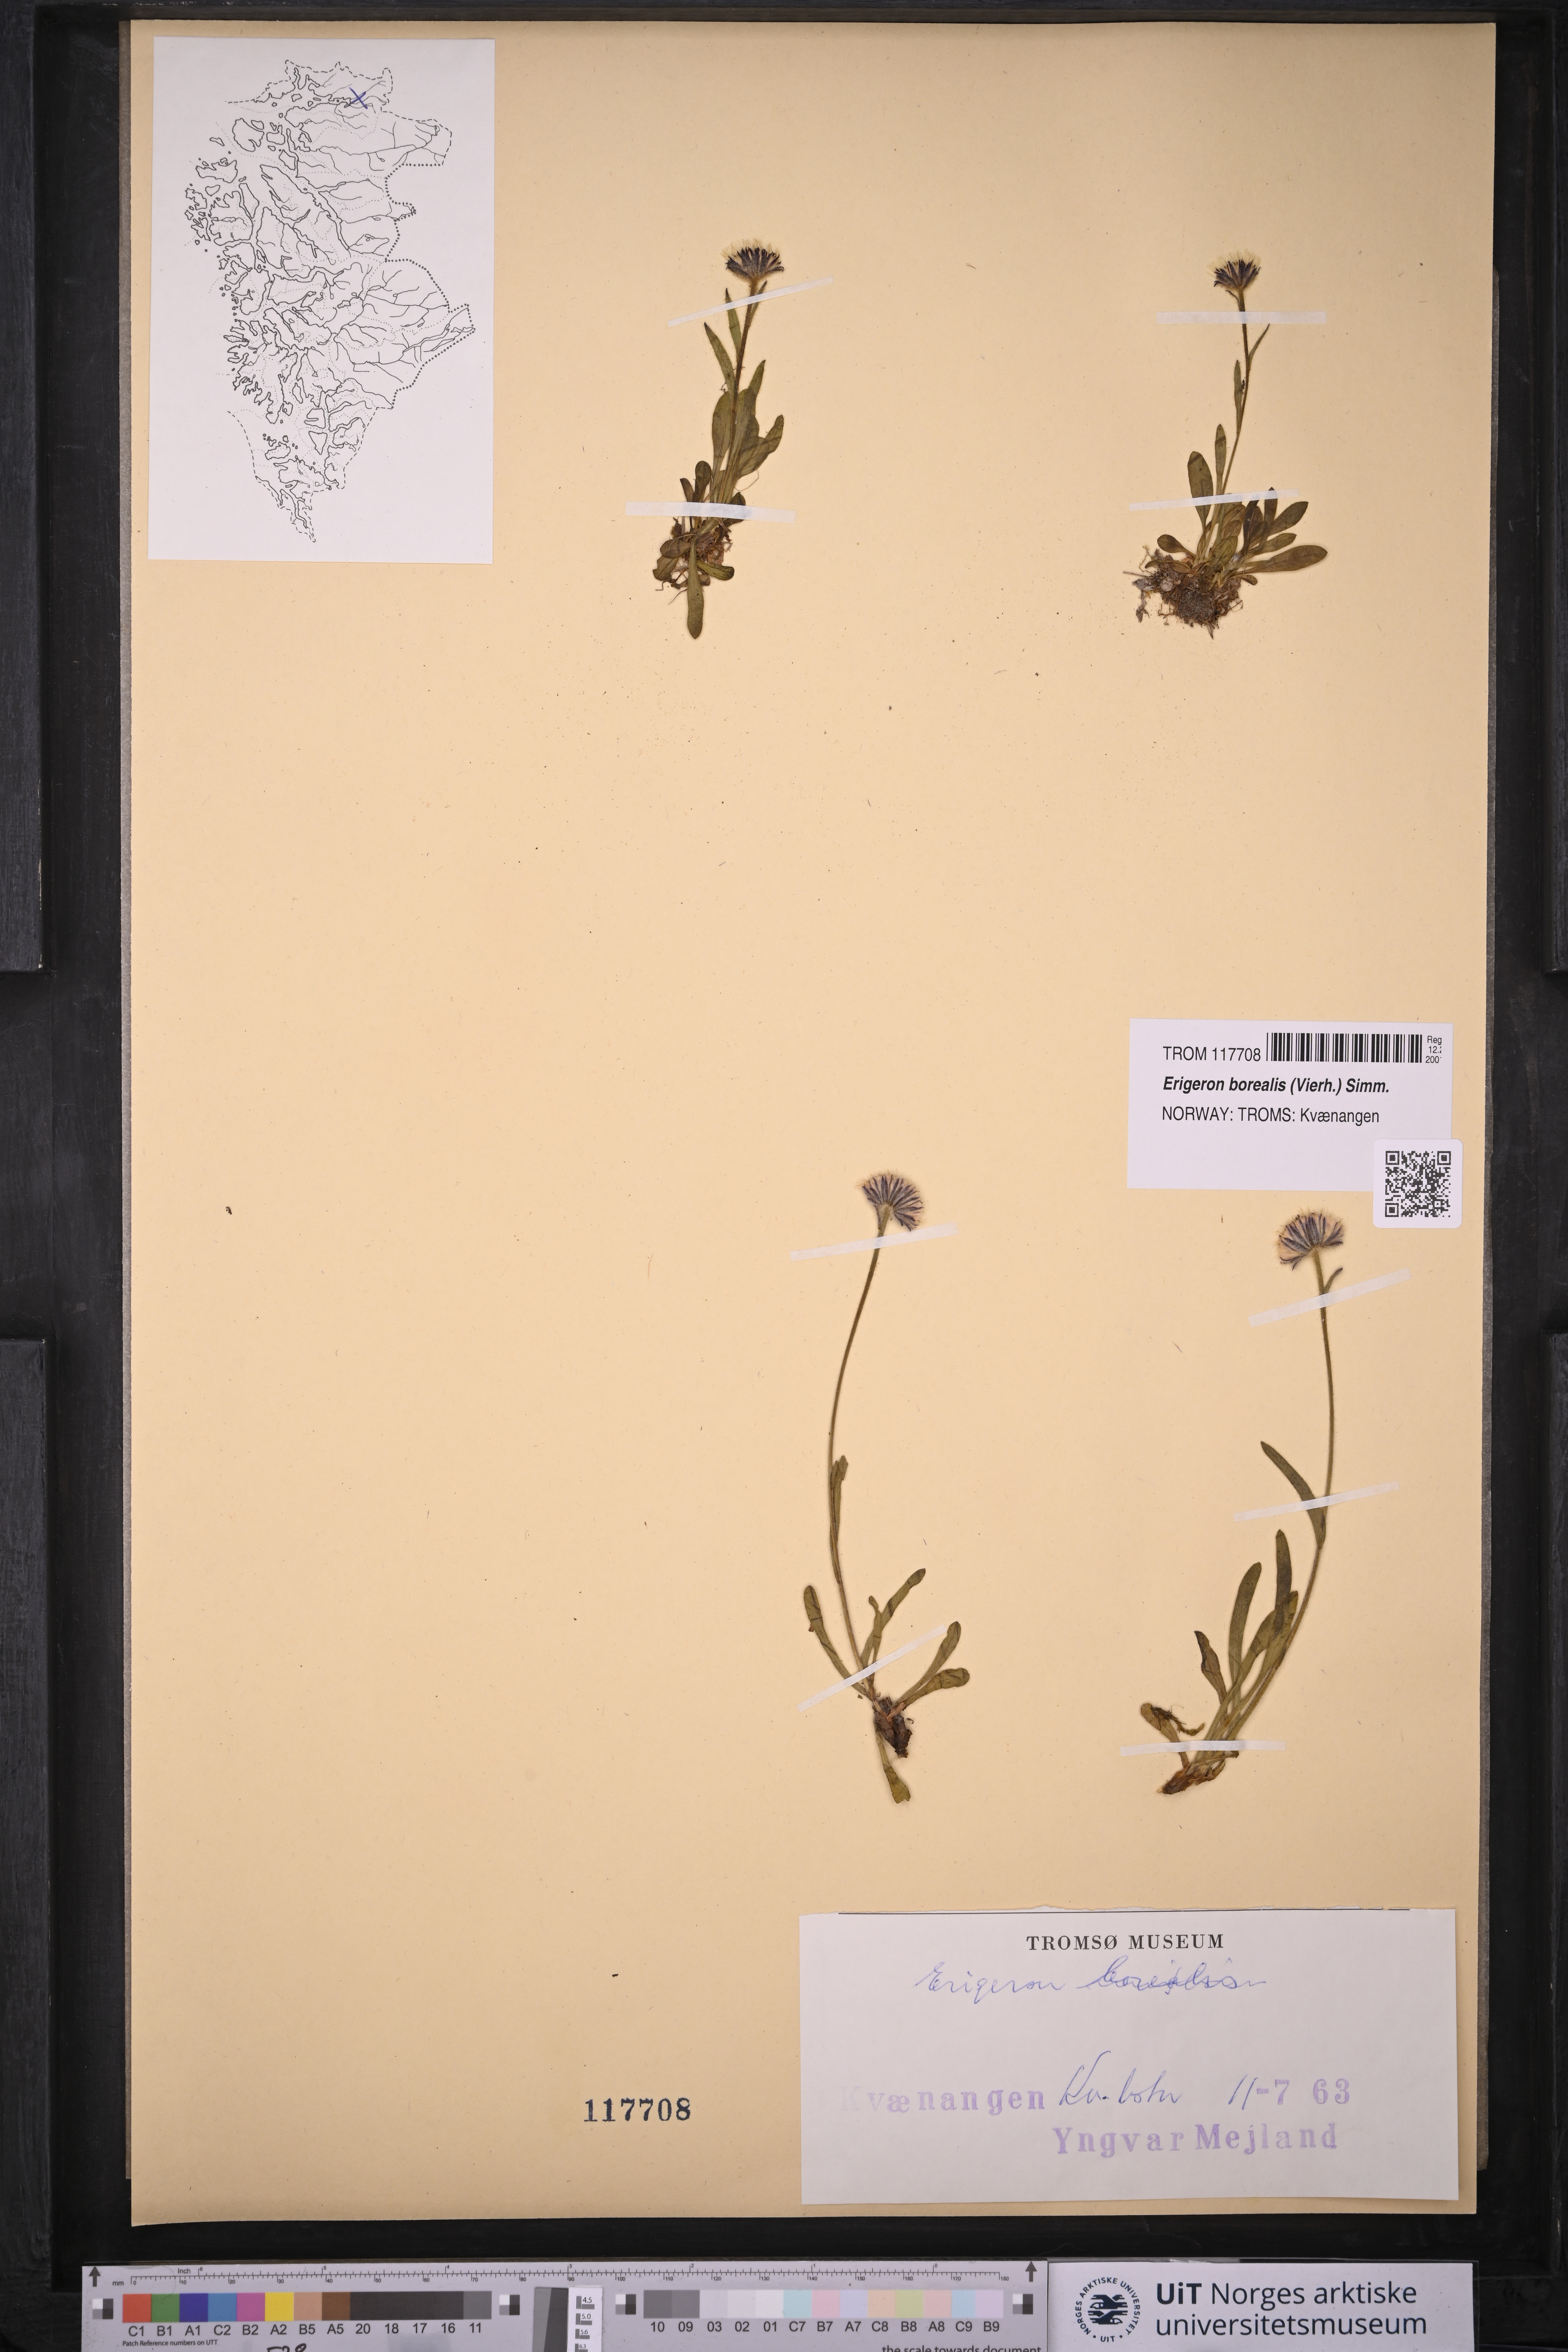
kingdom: Plantae
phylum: Tracheophyta
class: Magnoliopsida
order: Asterales
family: Asteraceae
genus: Erigeron
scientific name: Erigeron borealis
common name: Alpine fleabane
